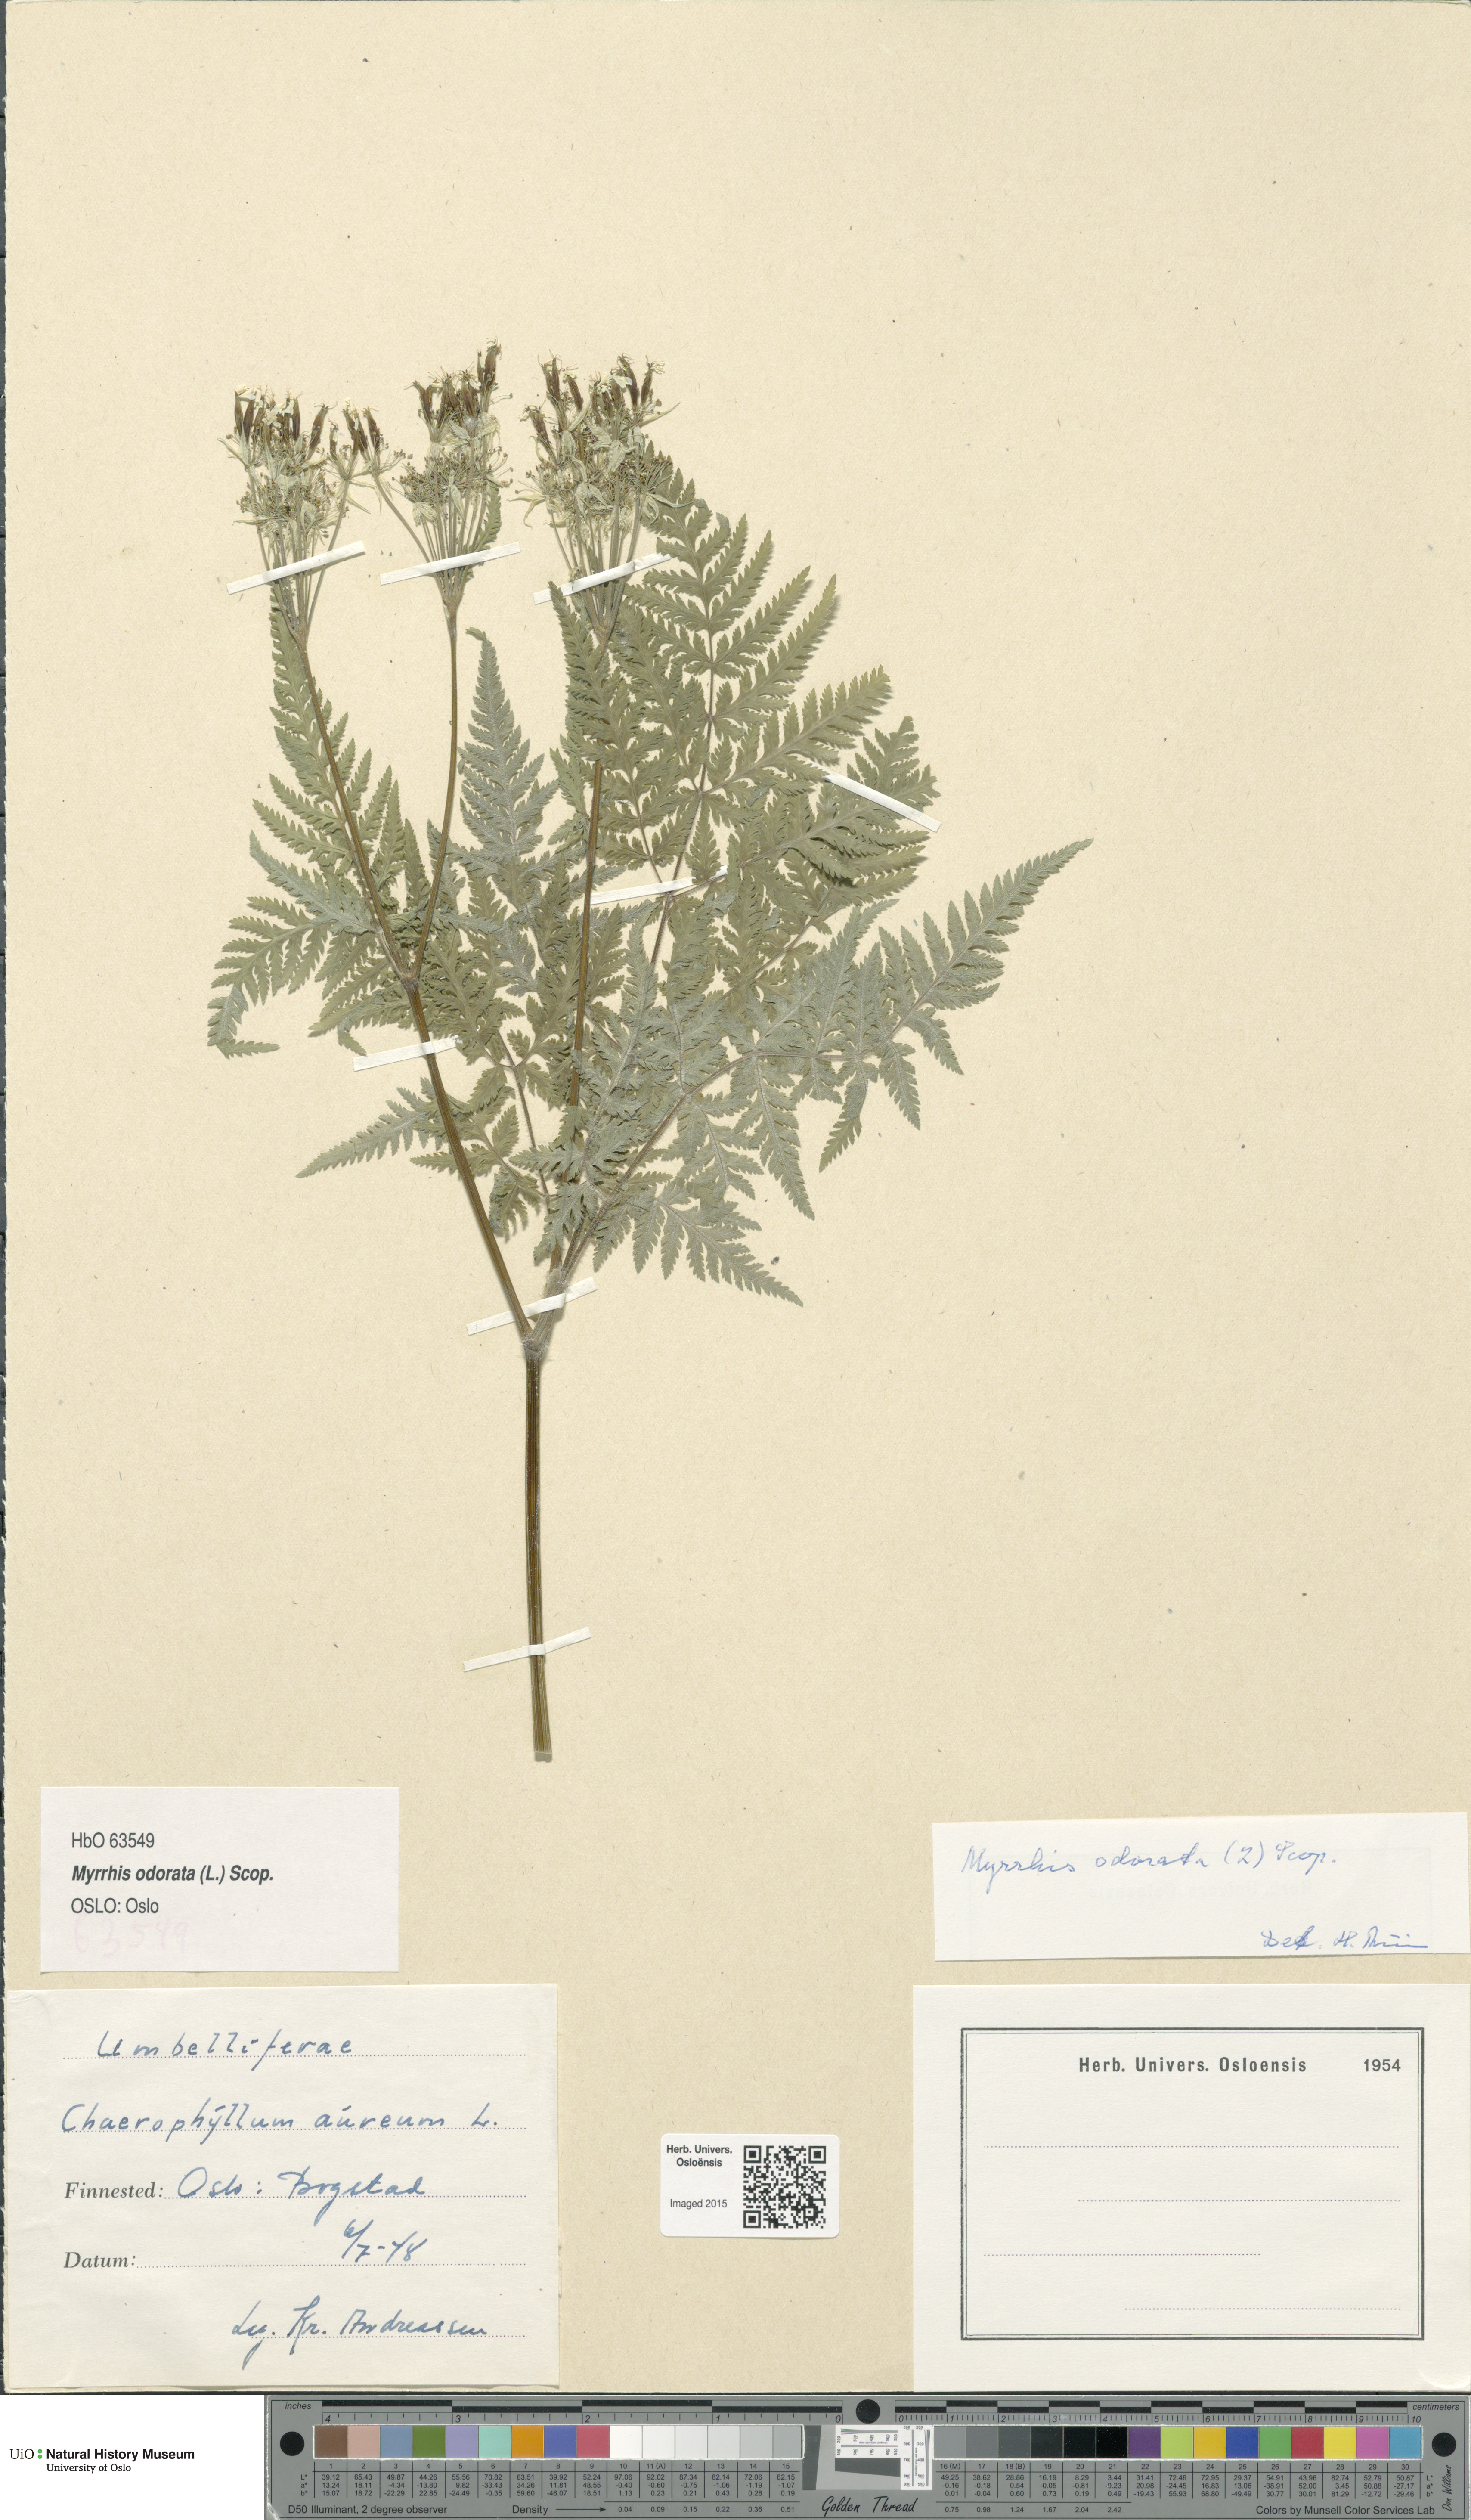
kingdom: Plantae
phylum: Tracheophyta
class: Magnoliopsida
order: Apiales
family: Apiaceae
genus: Myrrhis
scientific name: Myrrhis odorata
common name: Sweet cicely
